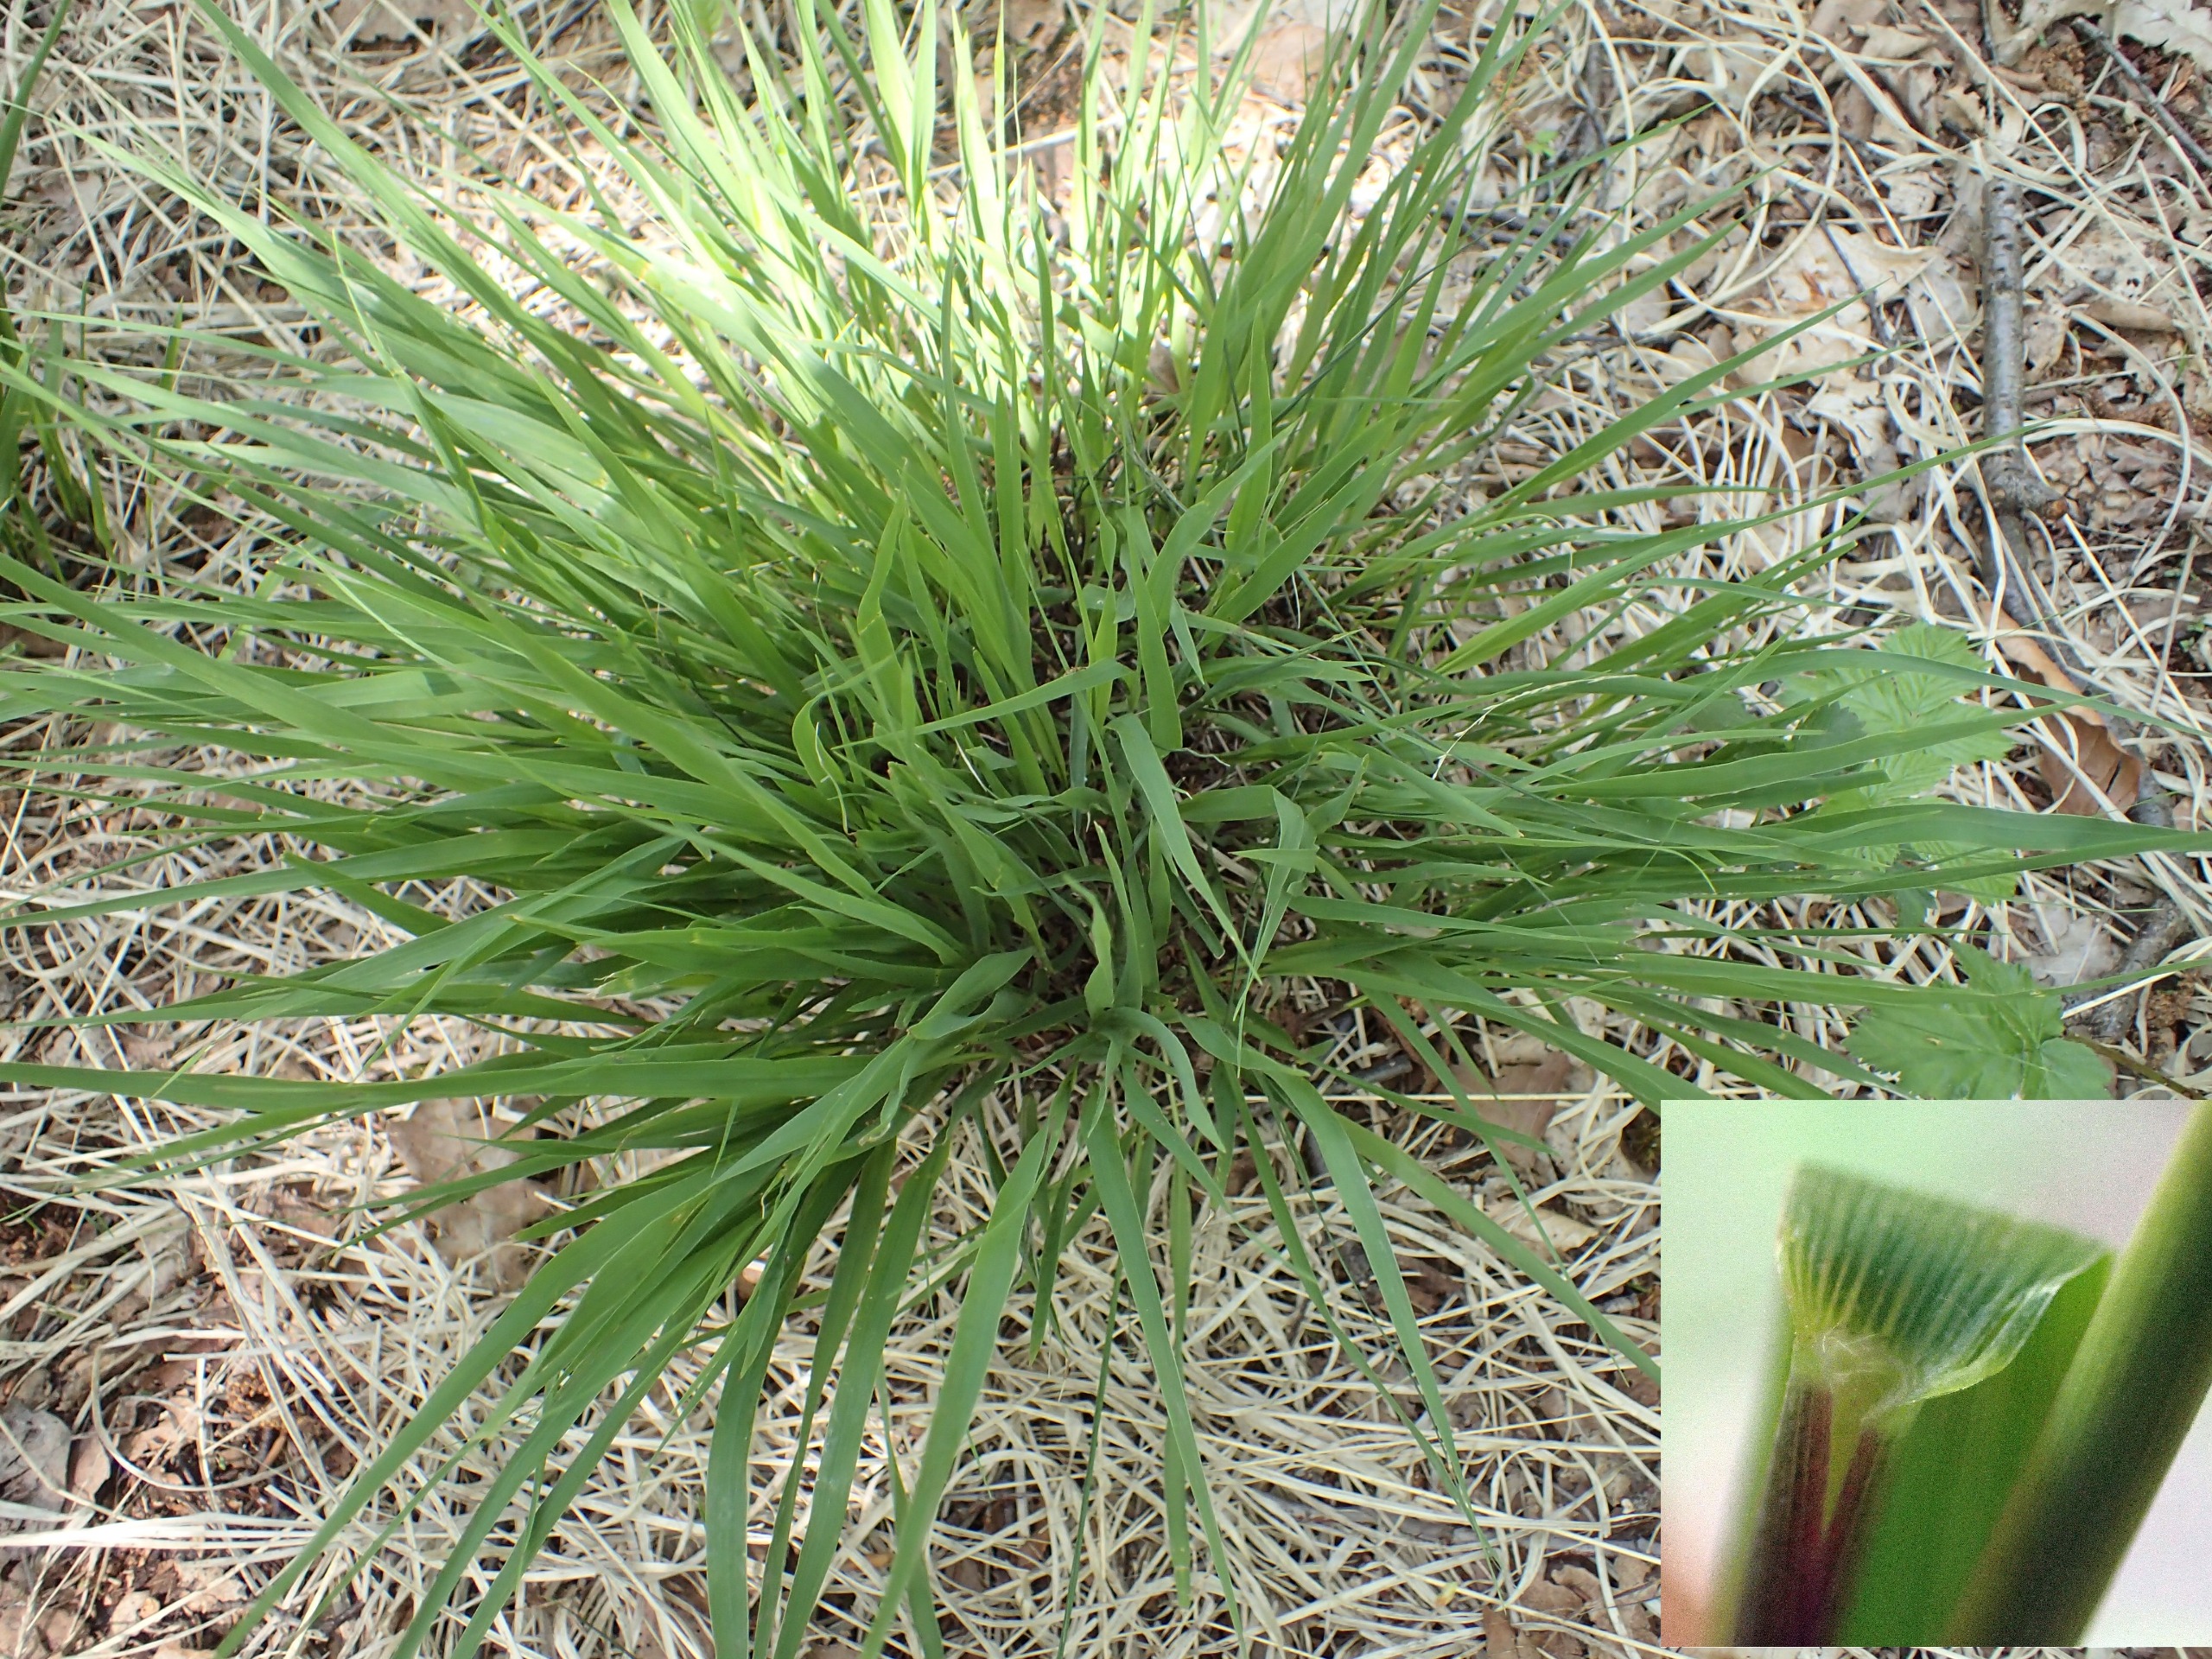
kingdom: Plantae
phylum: Tracheophyta
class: Liliopsida
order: Poales
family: Poaceae
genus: Molinia
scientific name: Molinia caerulea
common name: Blåtop
